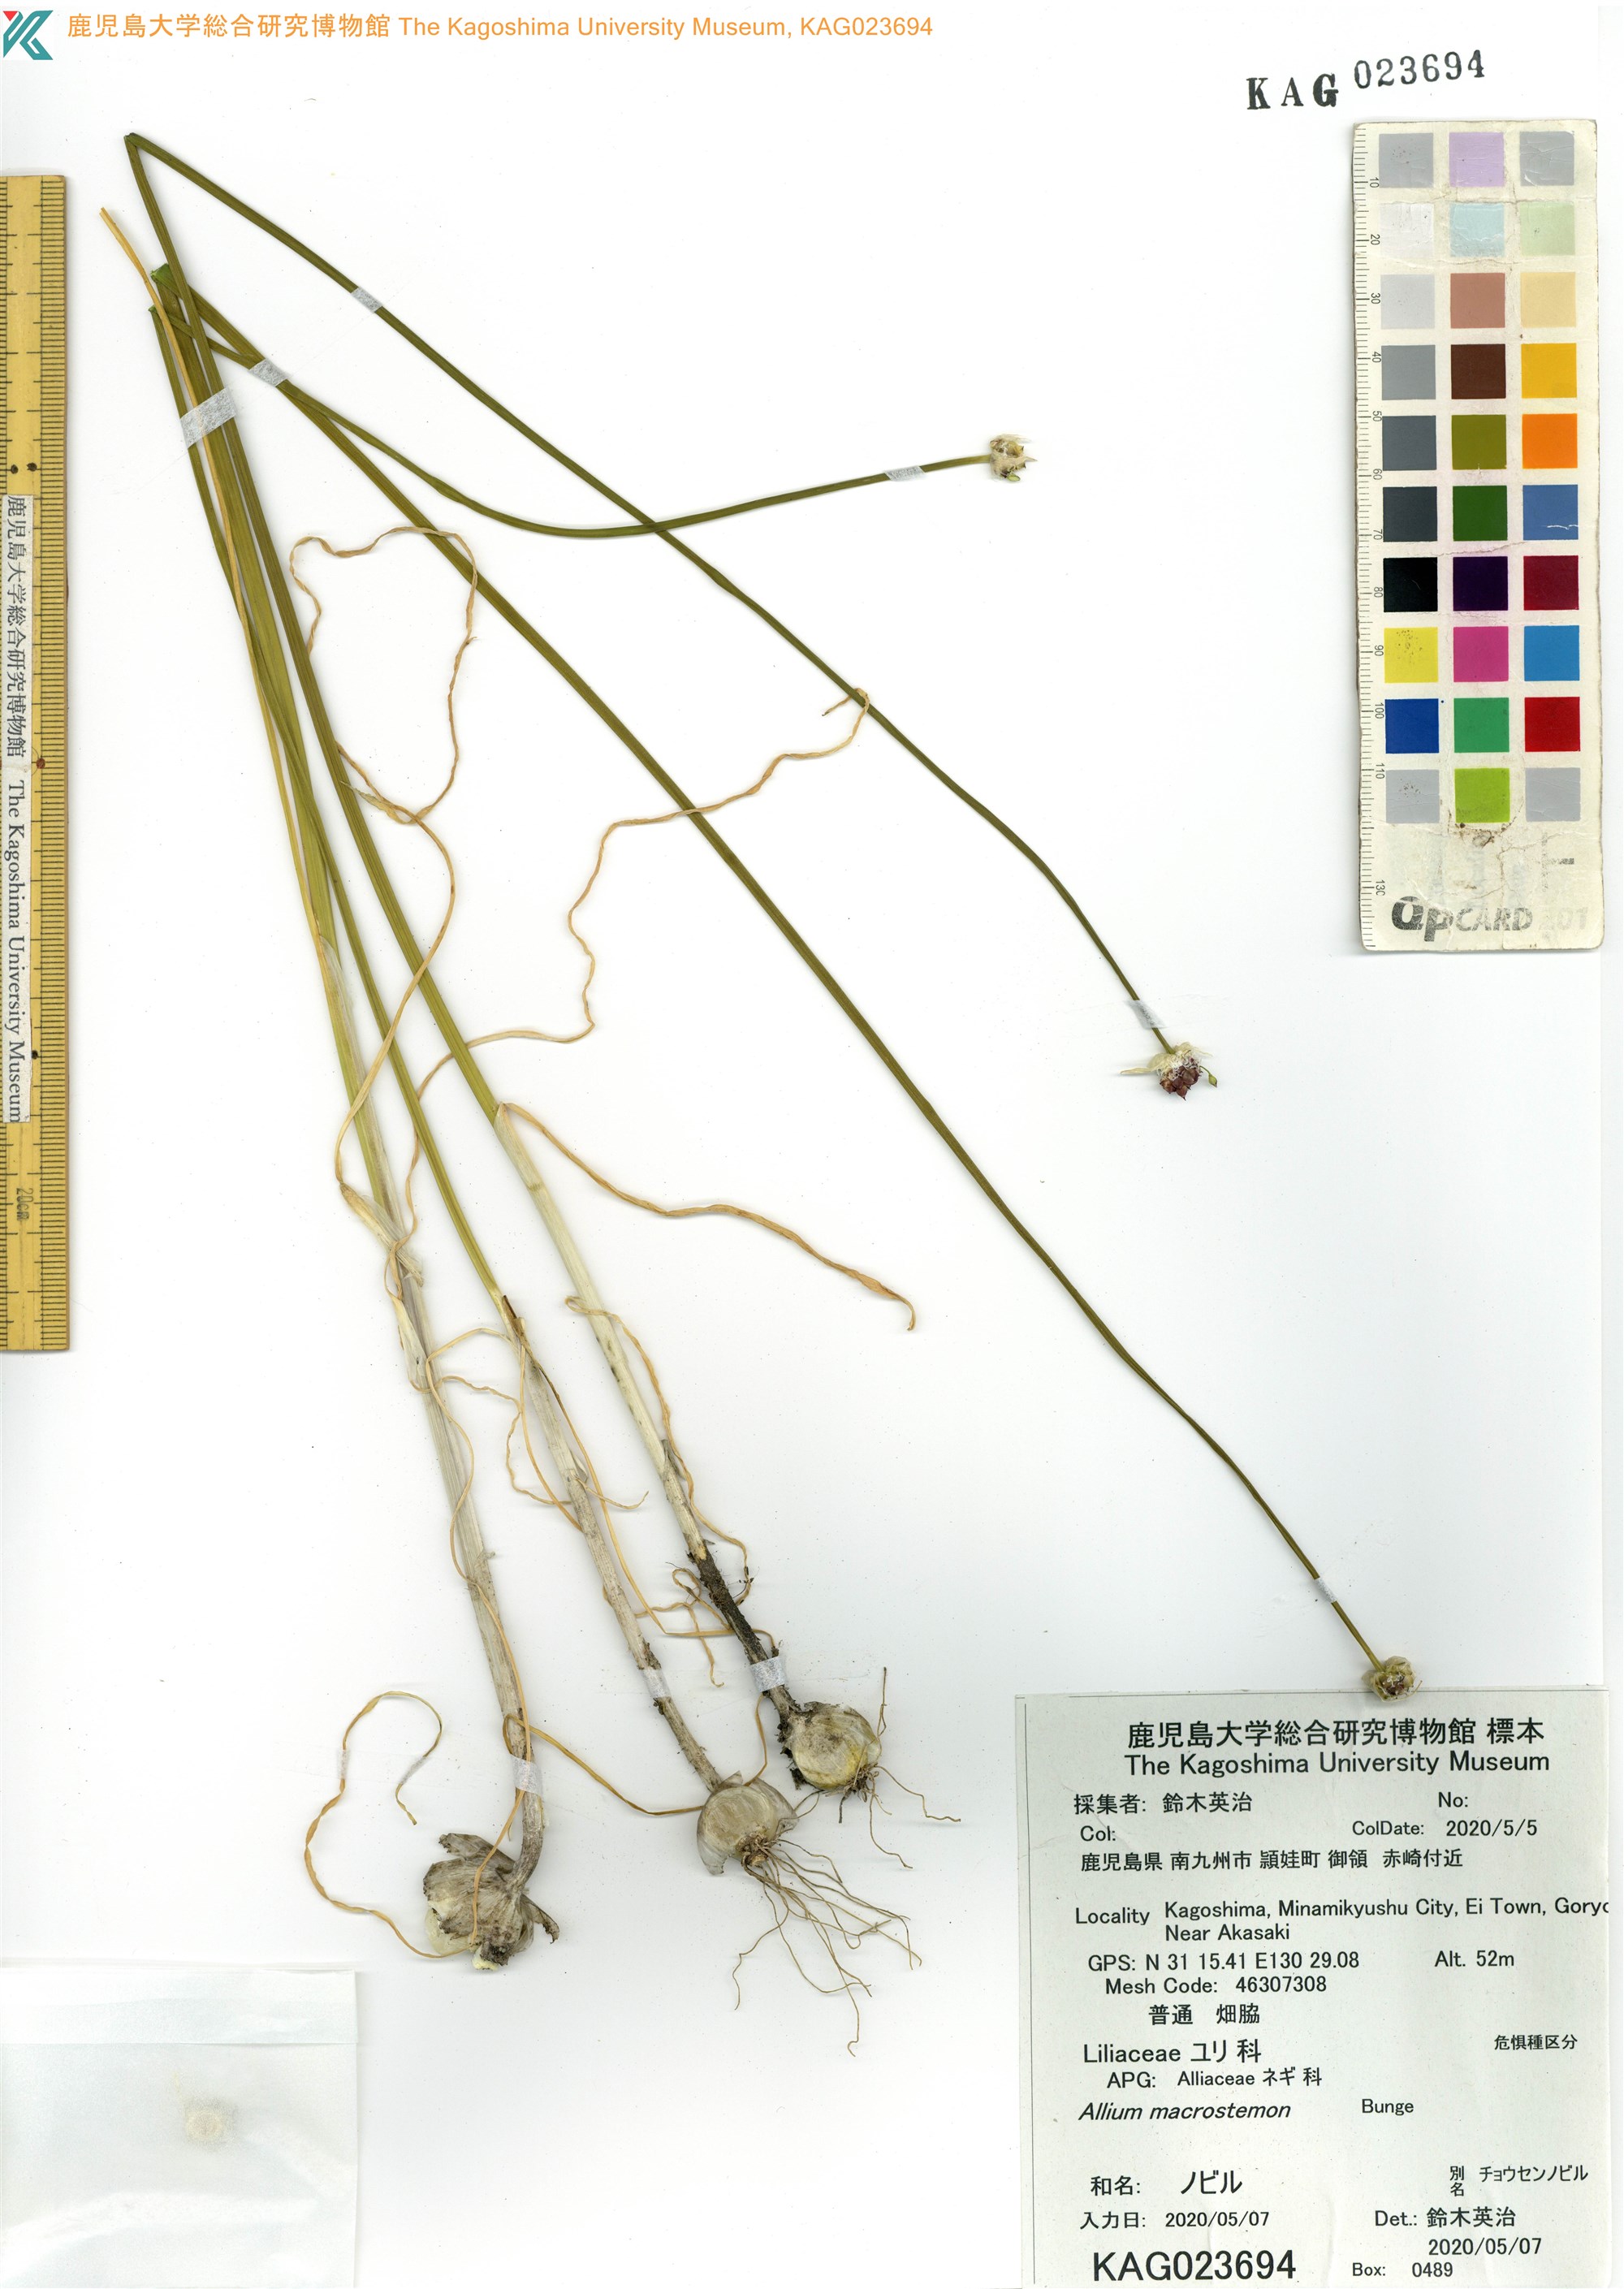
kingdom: Plantae
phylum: Tracheophyta
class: Liliopsida
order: Asparagales
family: Amaryllidaceae
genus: Allium
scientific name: Allium macrostemon
